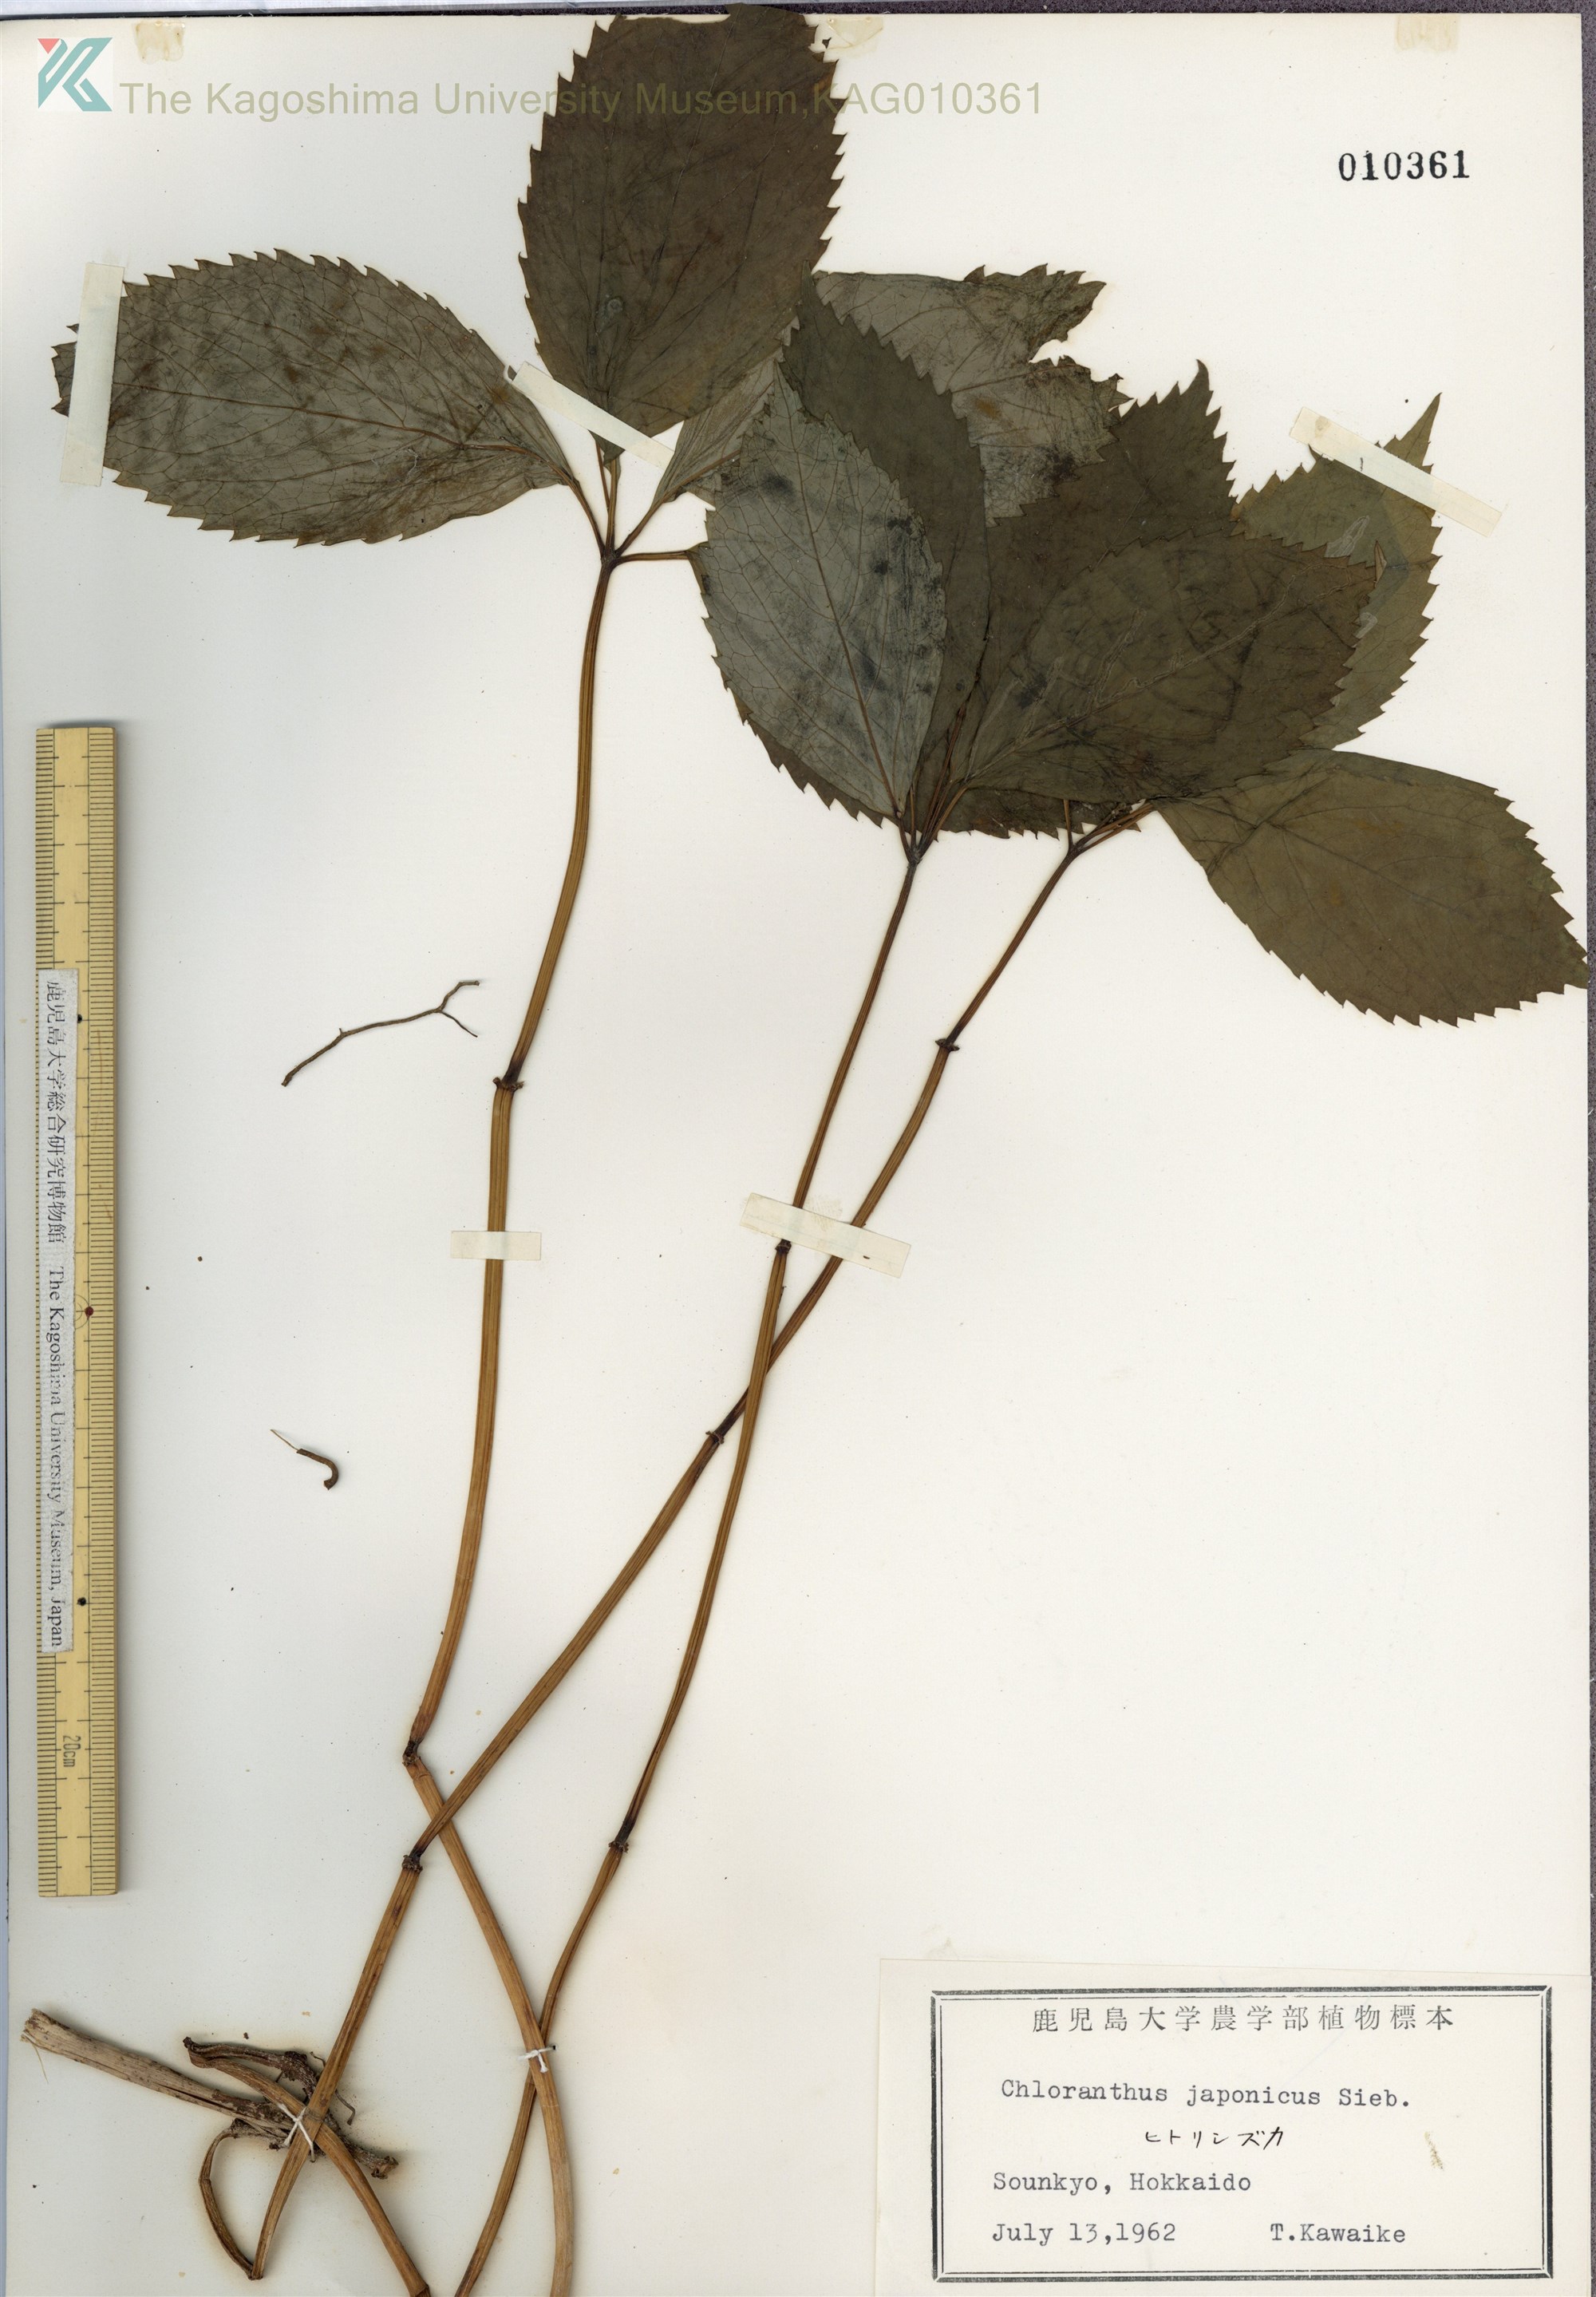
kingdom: Plantae
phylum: Tracheophyta
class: Magnoliopsida
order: Chloranthales
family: Chloranthaceae
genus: Chloranthus
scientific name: Chloranthus japonicus
